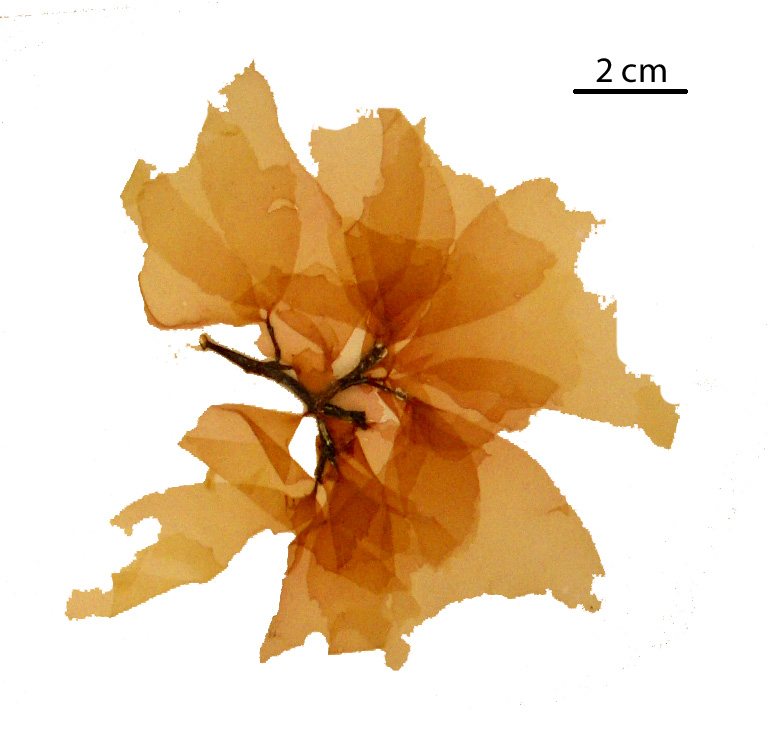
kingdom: Plantae
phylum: Rhodophyta
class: Florideophyceae
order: Halymeniales
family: Halymeniaceae
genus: Cryptonemia
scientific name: Cryptonemia latissima
